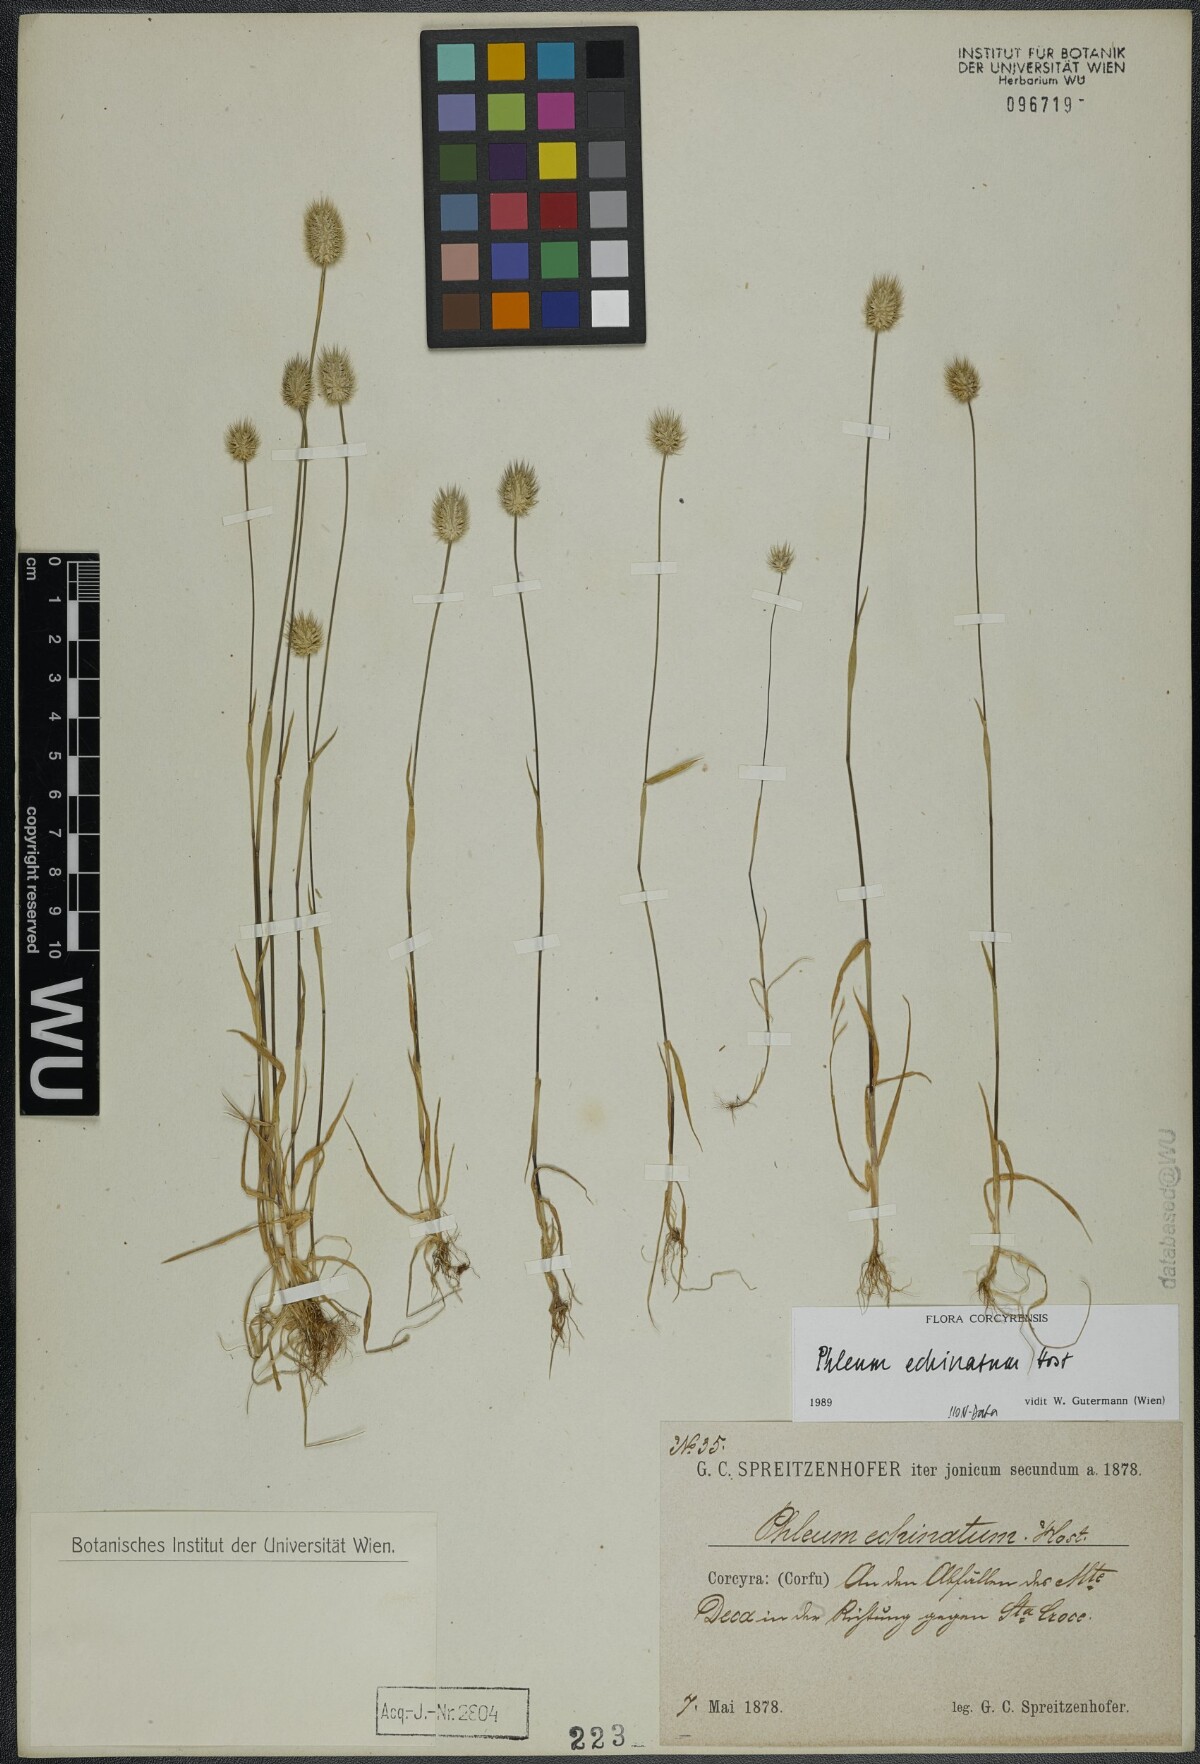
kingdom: Plantae
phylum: Tracheophyta
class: Liliopsida
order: Poales
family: Poaceae
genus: Phleum
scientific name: Phleum echinatum
